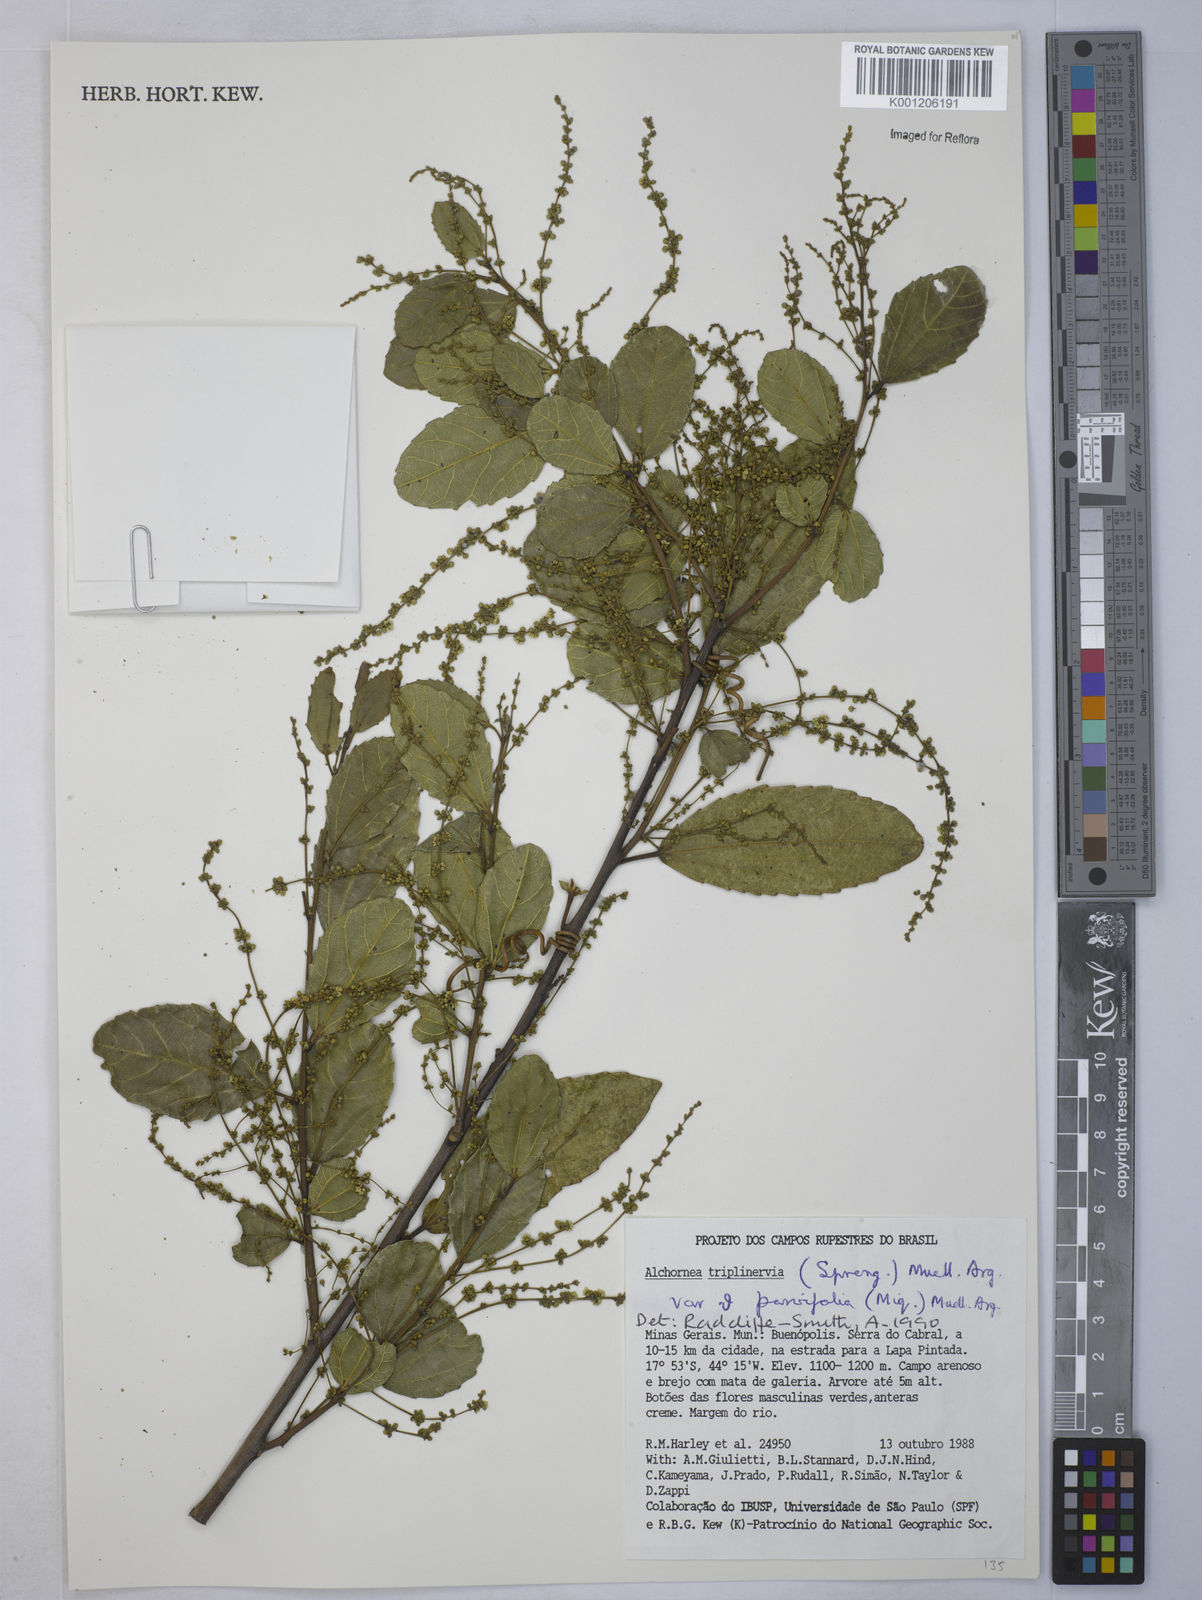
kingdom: Plantae
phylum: Tracheophyta
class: Magnoliopsida
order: Malpighiales
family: Euphorbiaceae
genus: Alchornea
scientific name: Alchornea
